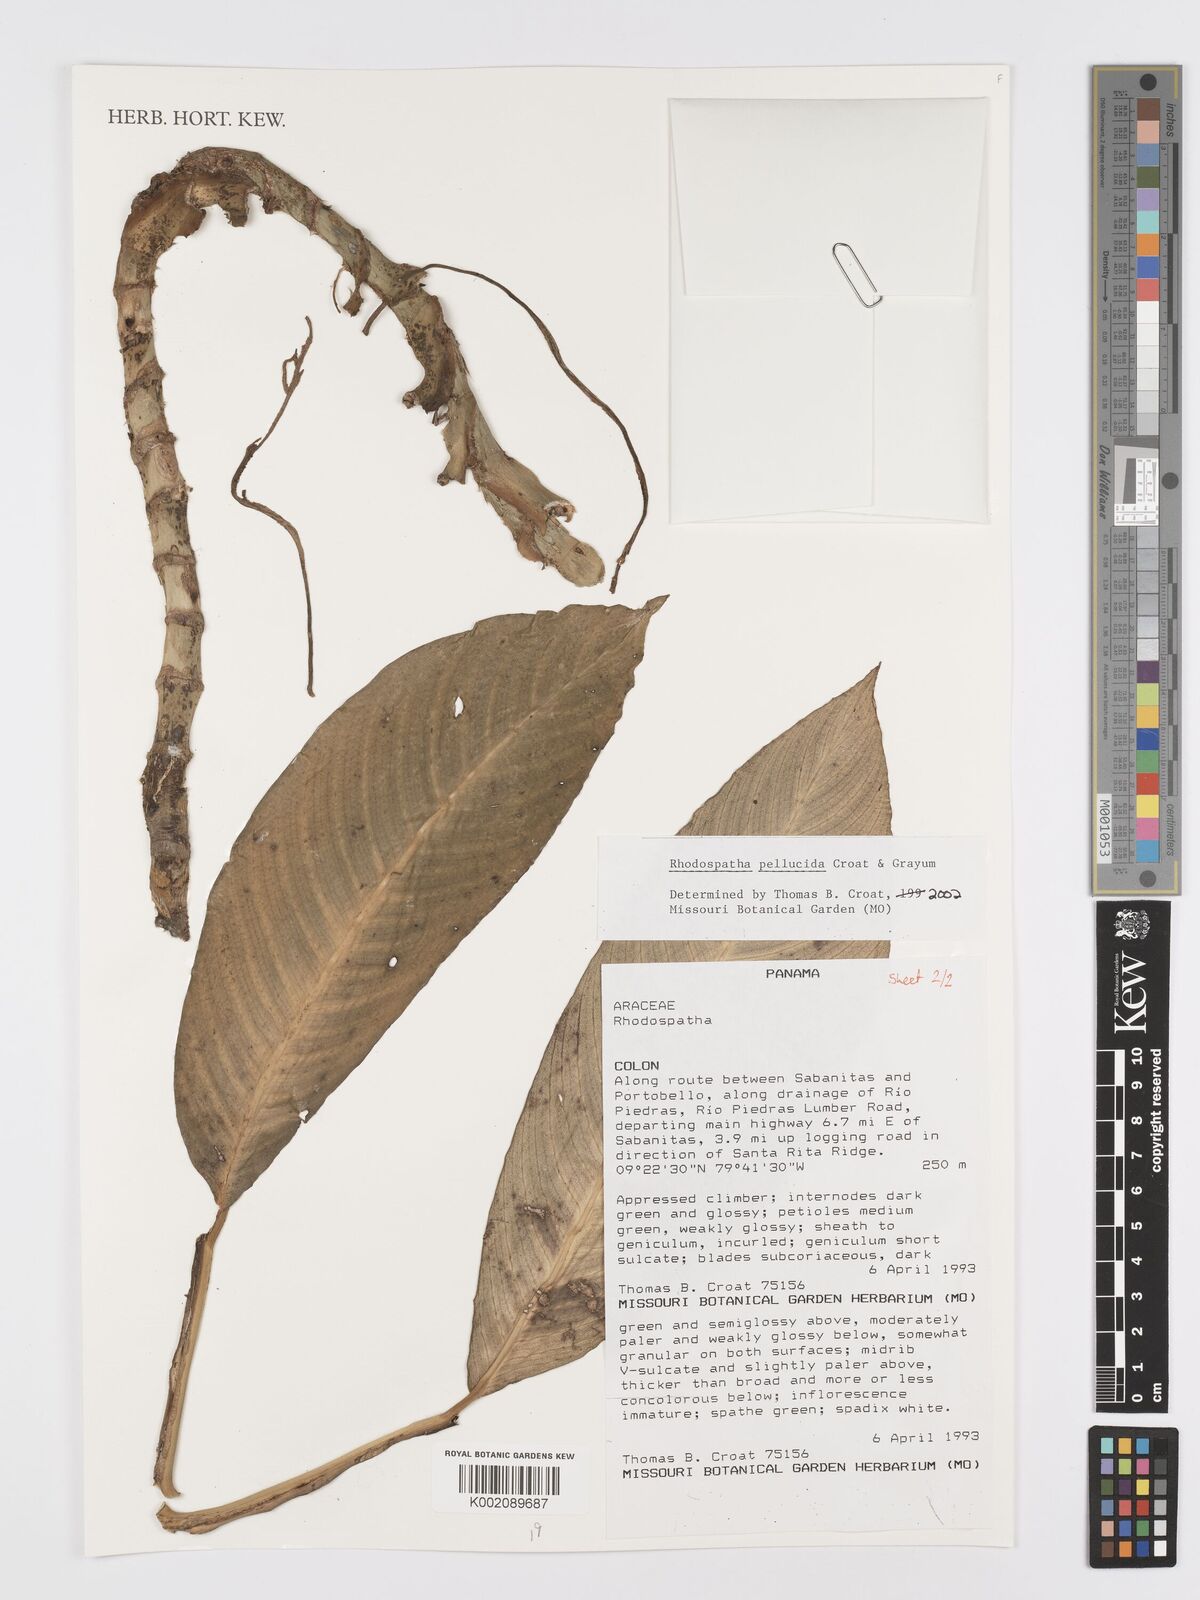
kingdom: Plantae
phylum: Tracheophyta
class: Liliopsida
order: Alismatales
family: Araceae
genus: Rhodospatha
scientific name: Rhodospatha pellucida
